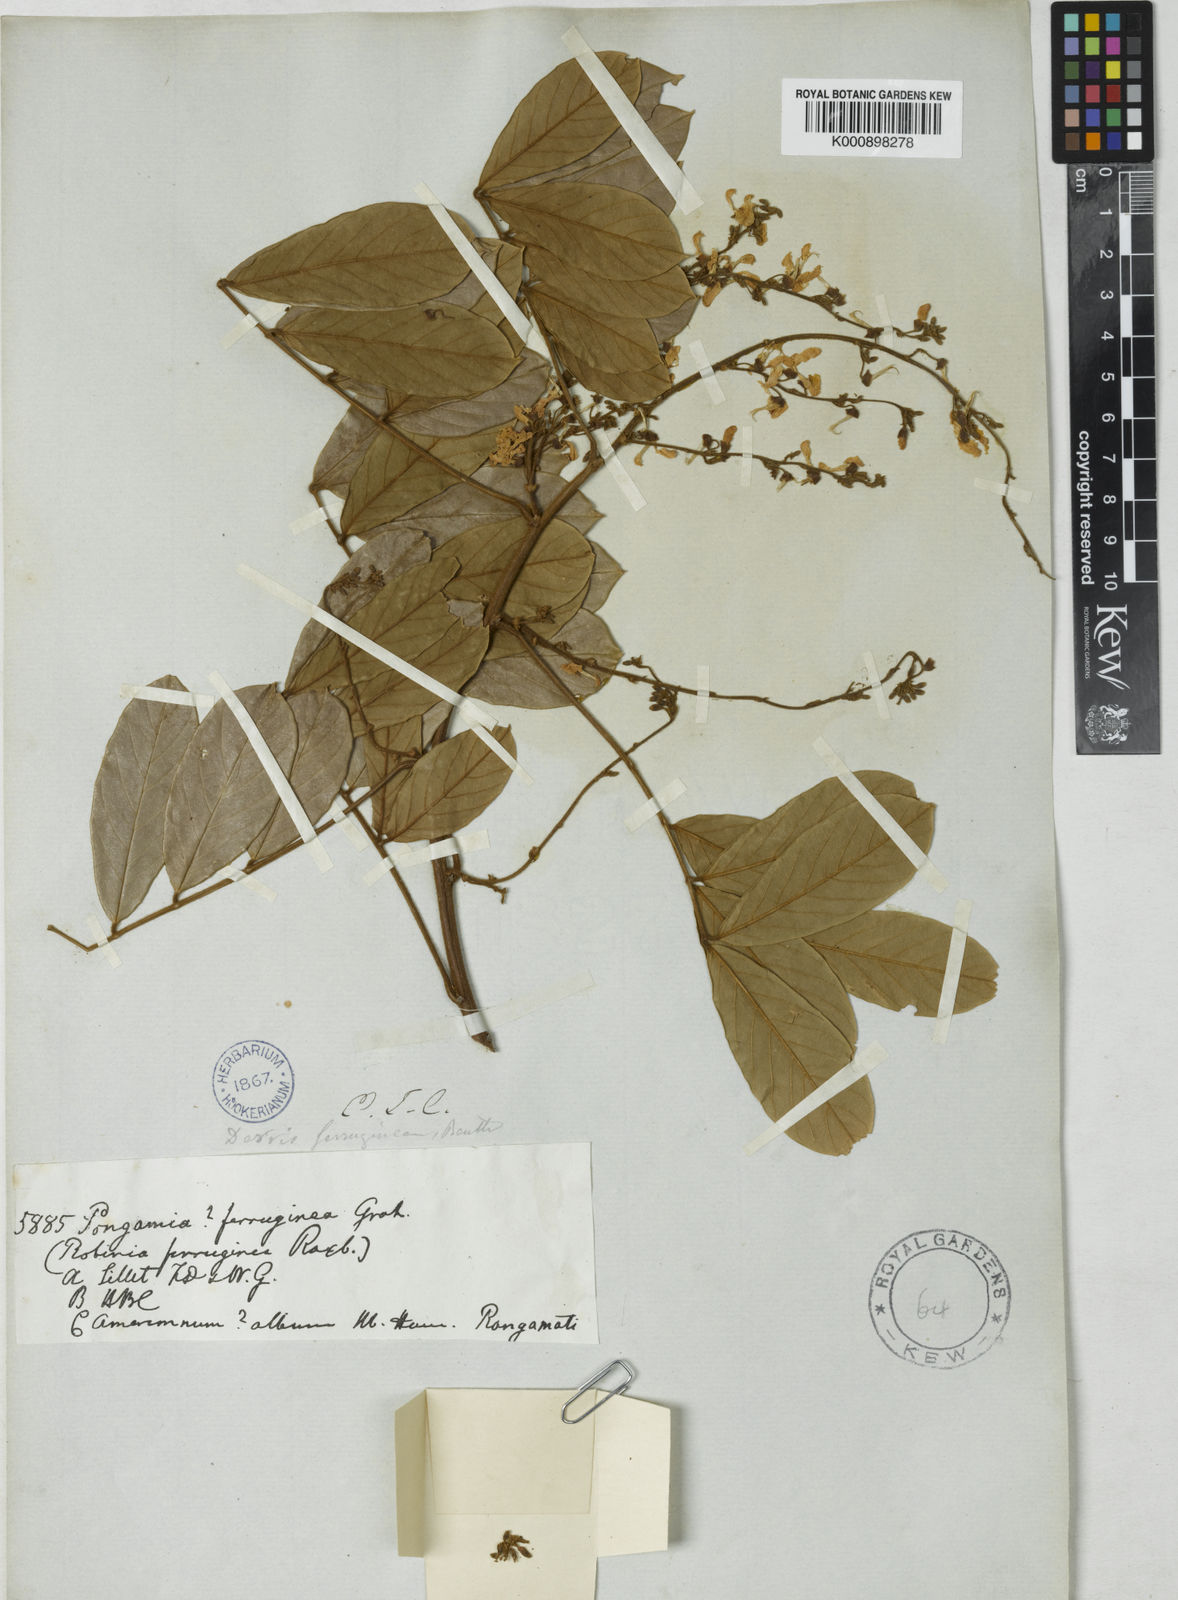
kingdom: Plantae
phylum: Tracheophyta
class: Magnoliopsida
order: Fabales
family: Fabaceae
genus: Derris
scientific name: Derris ferruginea
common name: Indian tubaroot
